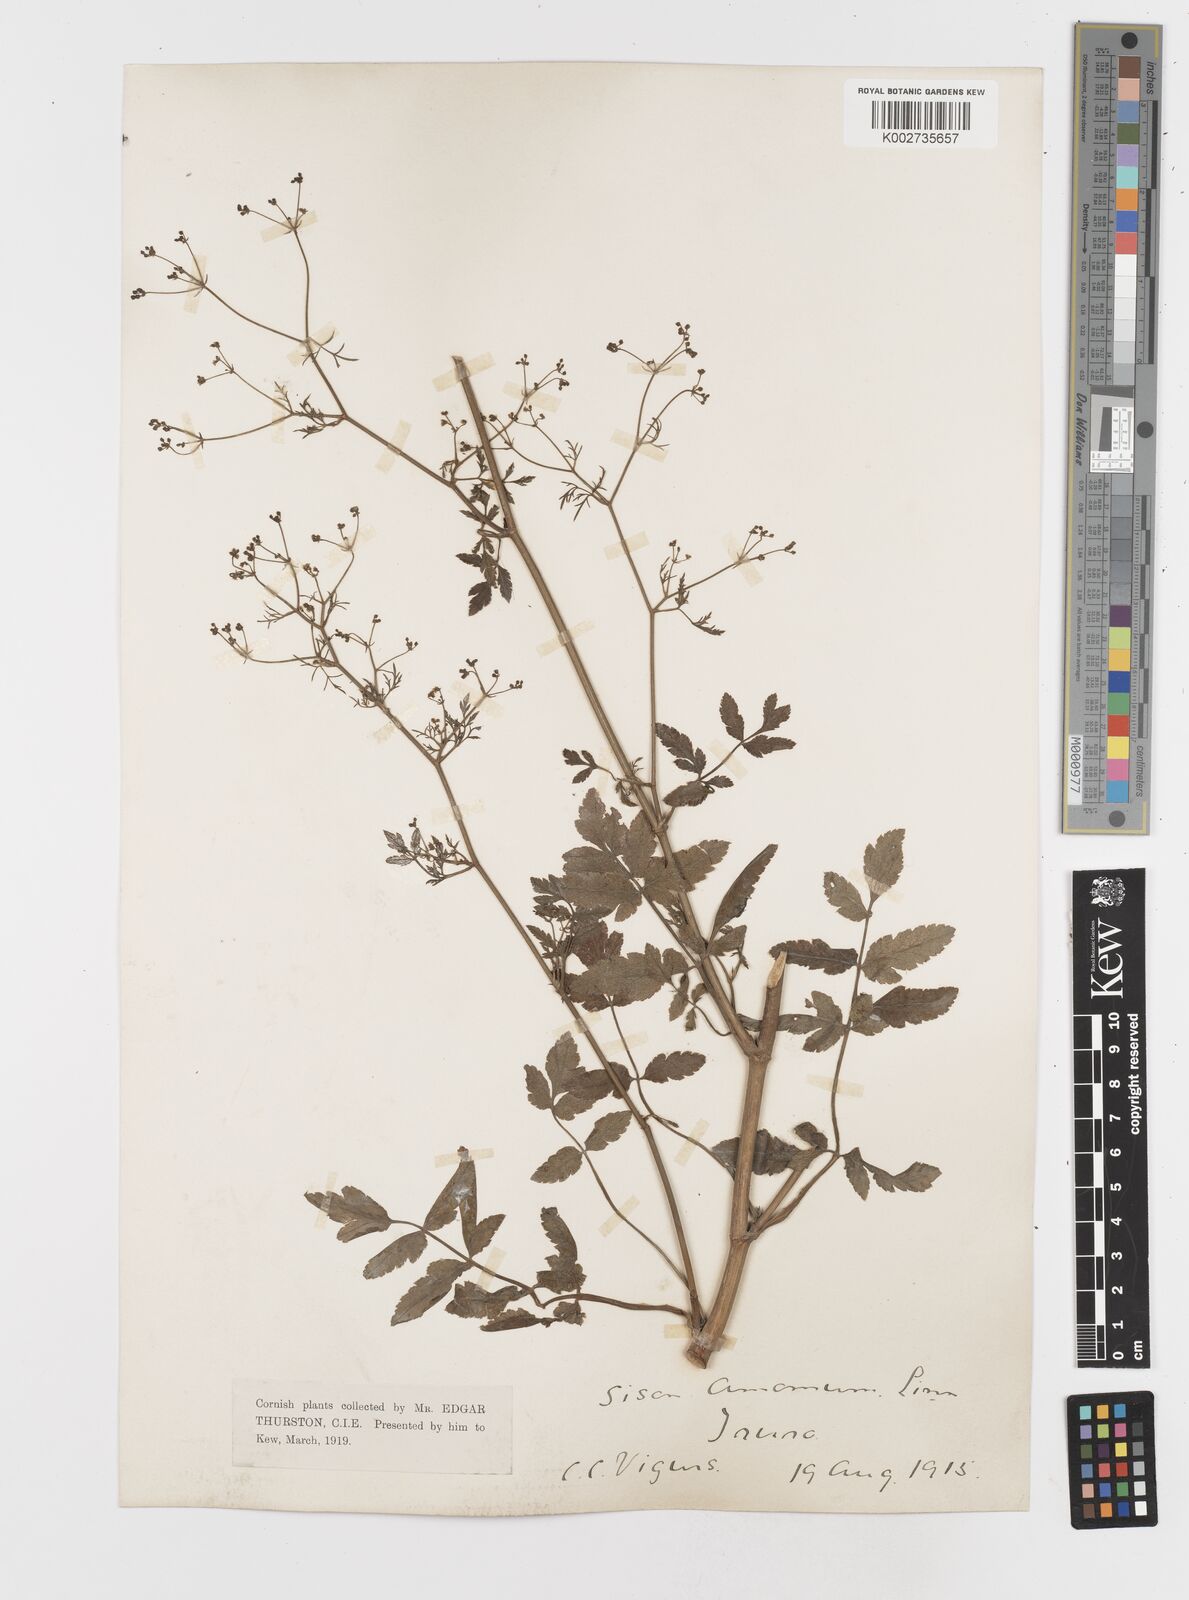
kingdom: Plantae
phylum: Tracheophyta
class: Magnoliopsida
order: Apiales
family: Apiaceae
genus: Sison
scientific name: Sison amomum
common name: Stone-parsley
